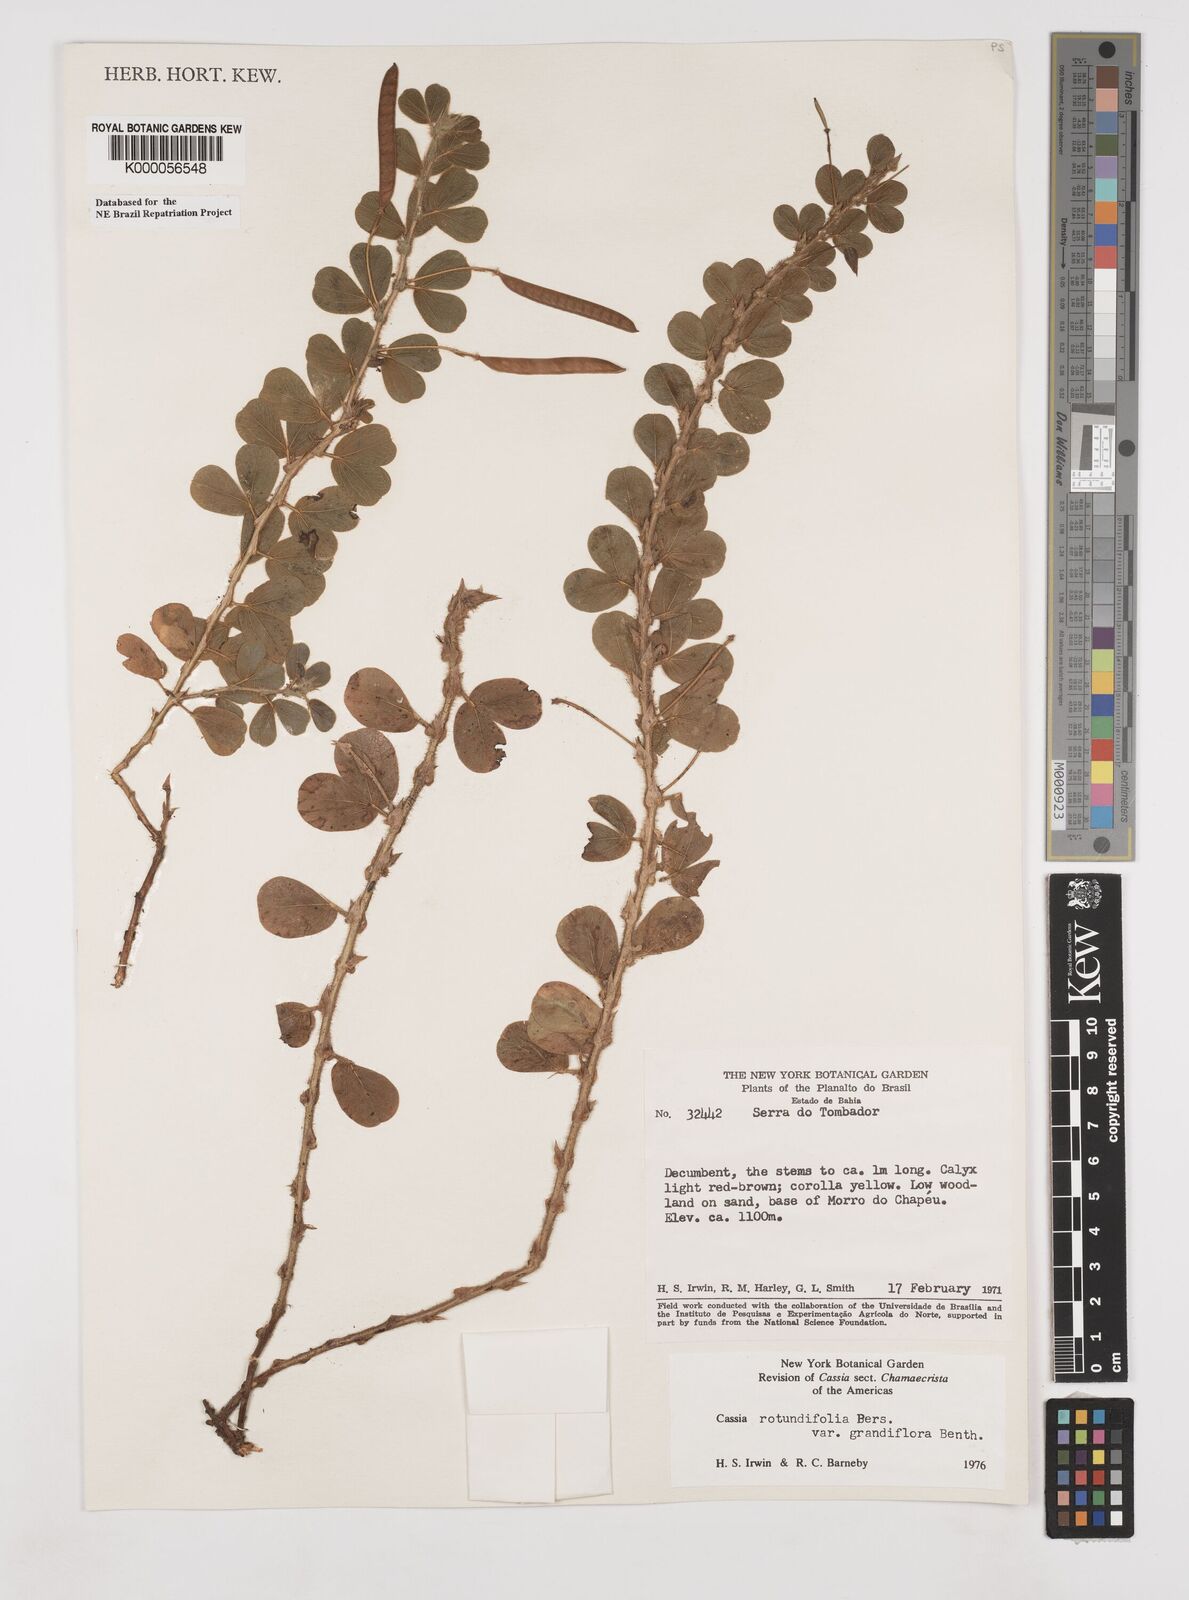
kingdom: Plantae
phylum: Tracheophyta
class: Magnoliopsida
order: Fabales
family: Fabaceae
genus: Chamaecrista
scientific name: Chamaecrista rotundifolia
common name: Round-leaf cassia
